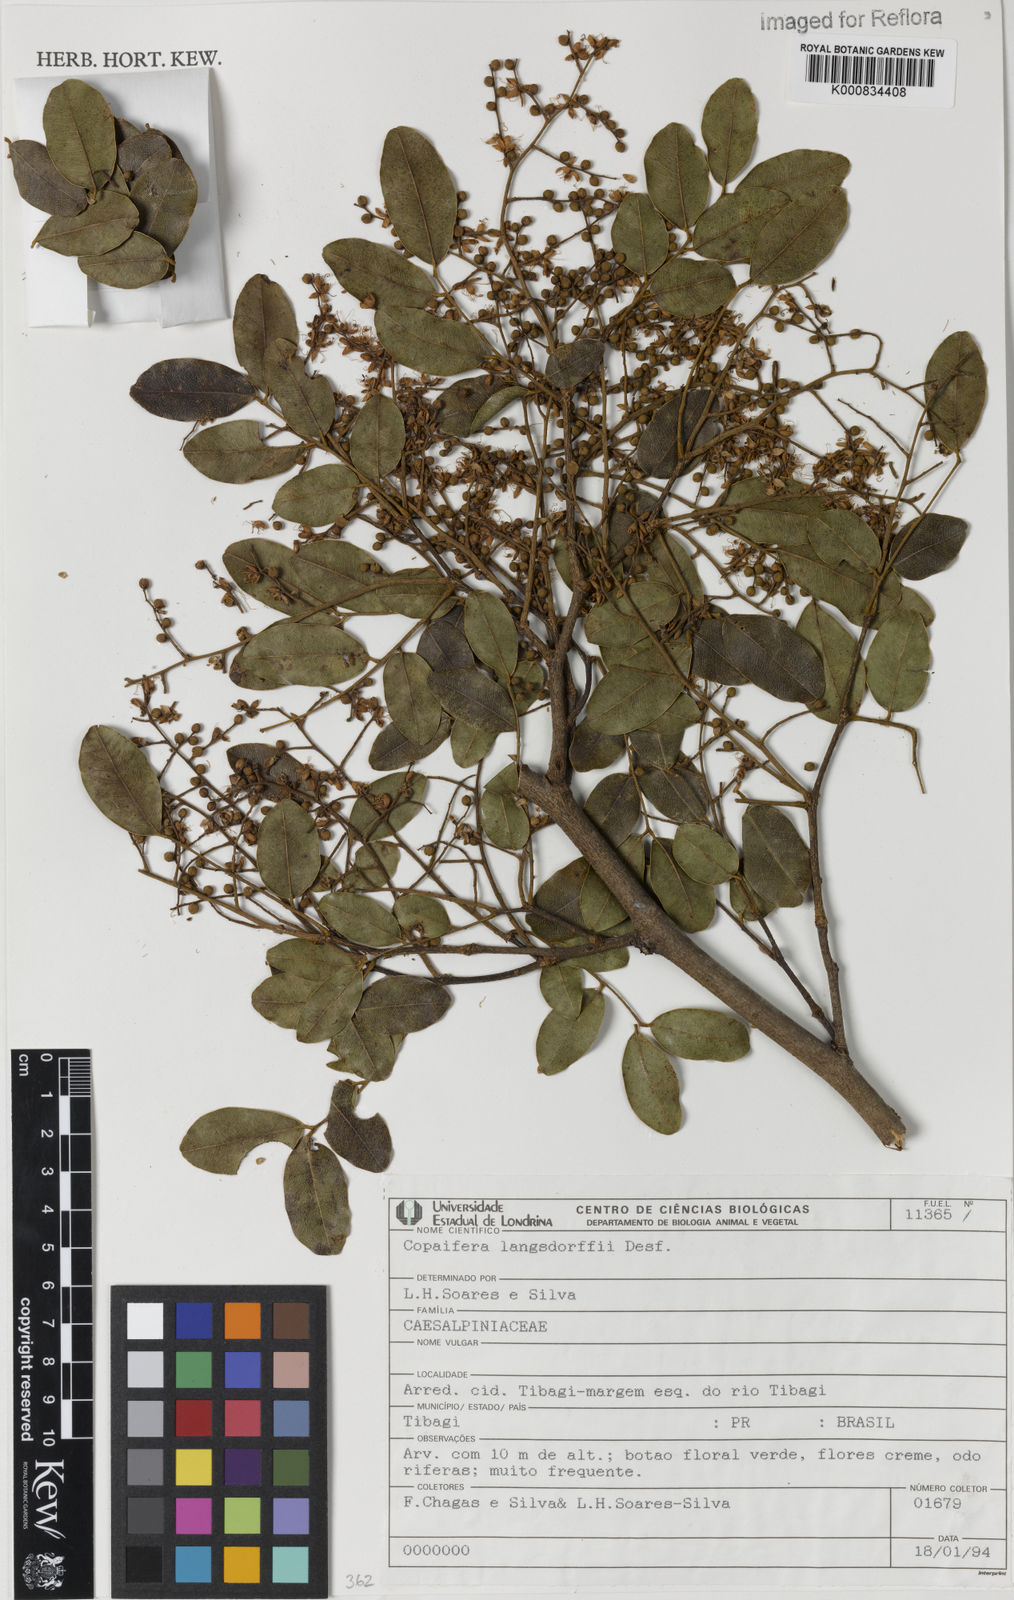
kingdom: Plantae
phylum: Tracheophyta
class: Magnoliopsida
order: Fabales
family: Fabaceae
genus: Copaifera
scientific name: Copaifera langsdorffii
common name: Brazilian diesel tree
